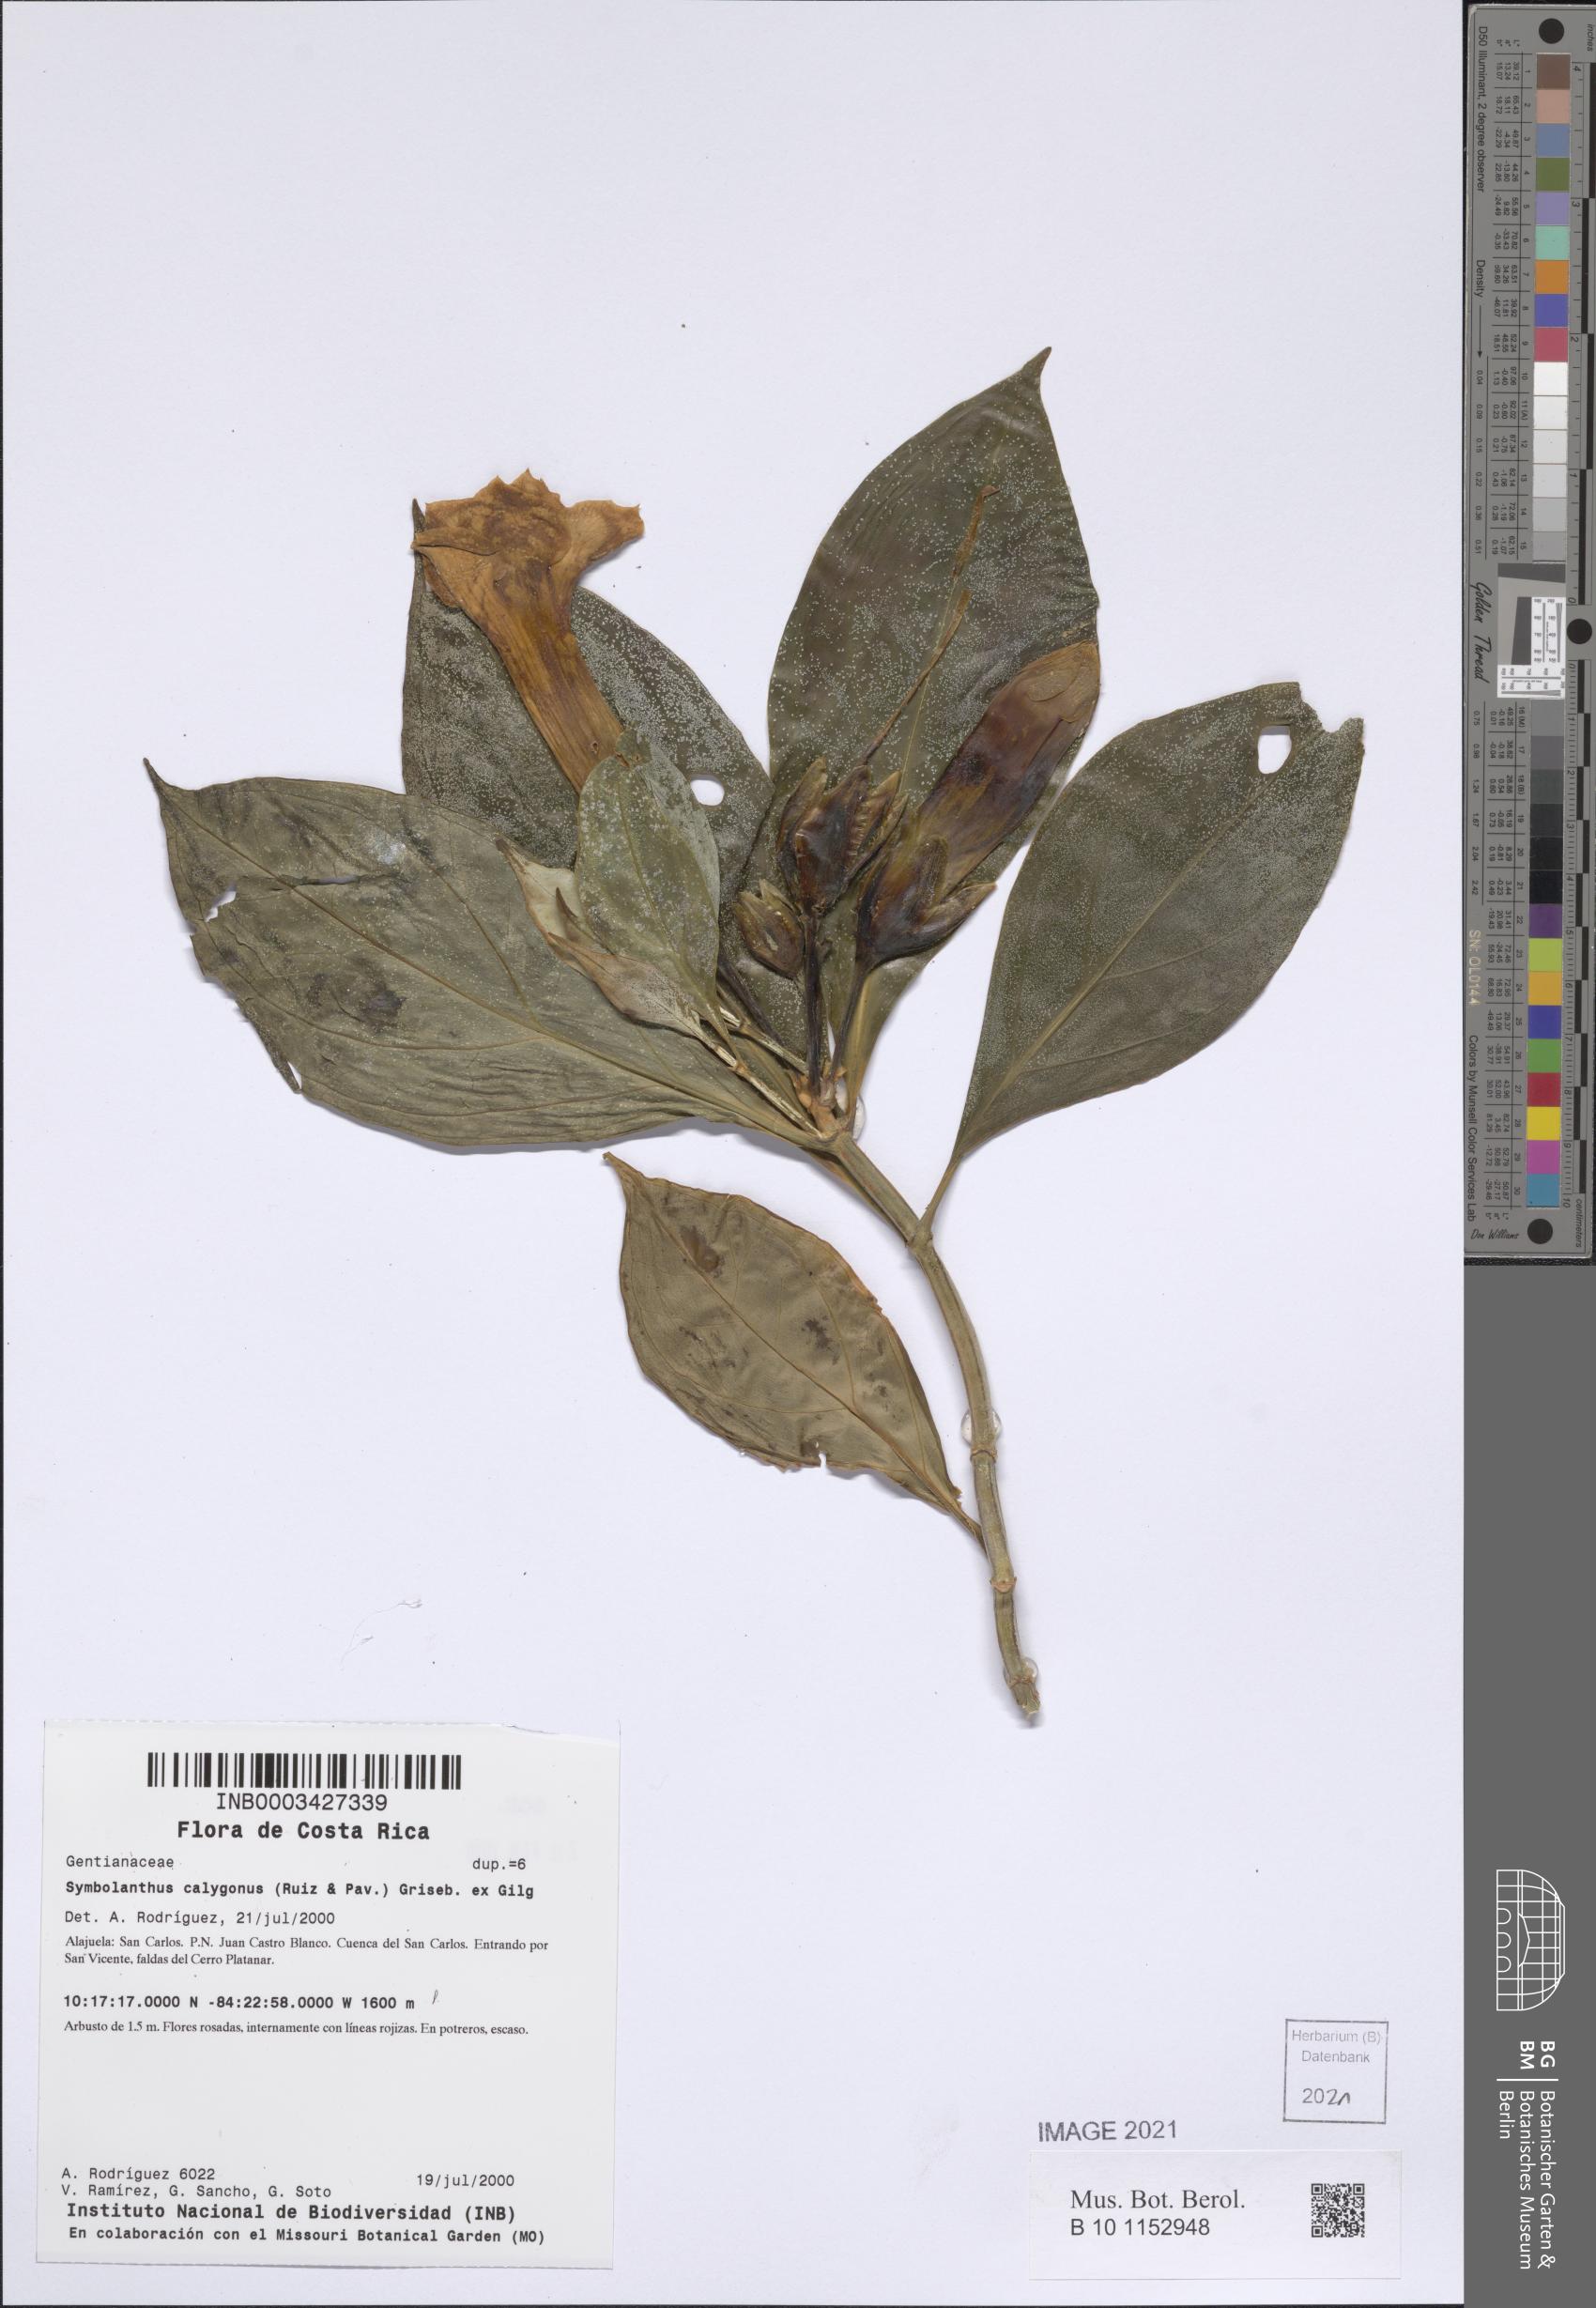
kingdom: Plantae
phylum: Tracheophyta
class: Magnoliopsida
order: Gentianales
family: Gentianaceae
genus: Symbolanthus
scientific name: Symbolanthus pulcherrimus
